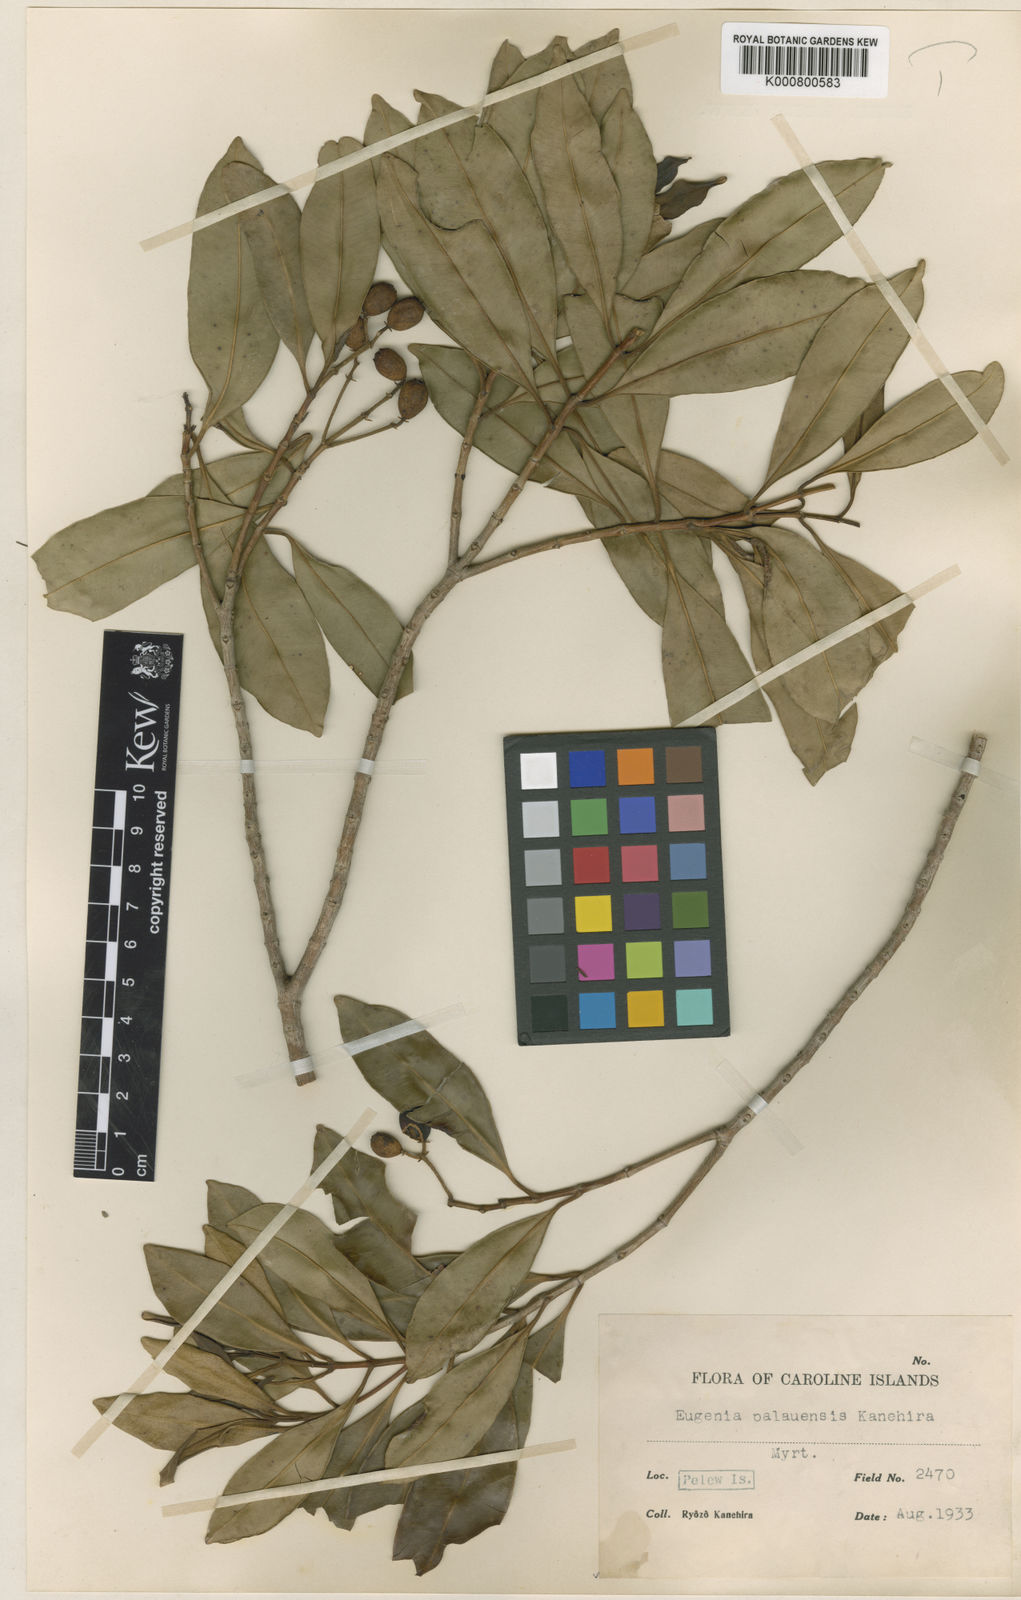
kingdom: Plantae
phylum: Tracheophyta
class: Magnoliopsida
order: Myrtales
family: Myrtaceae
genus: Syzygium
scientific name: Syzygium palauense
